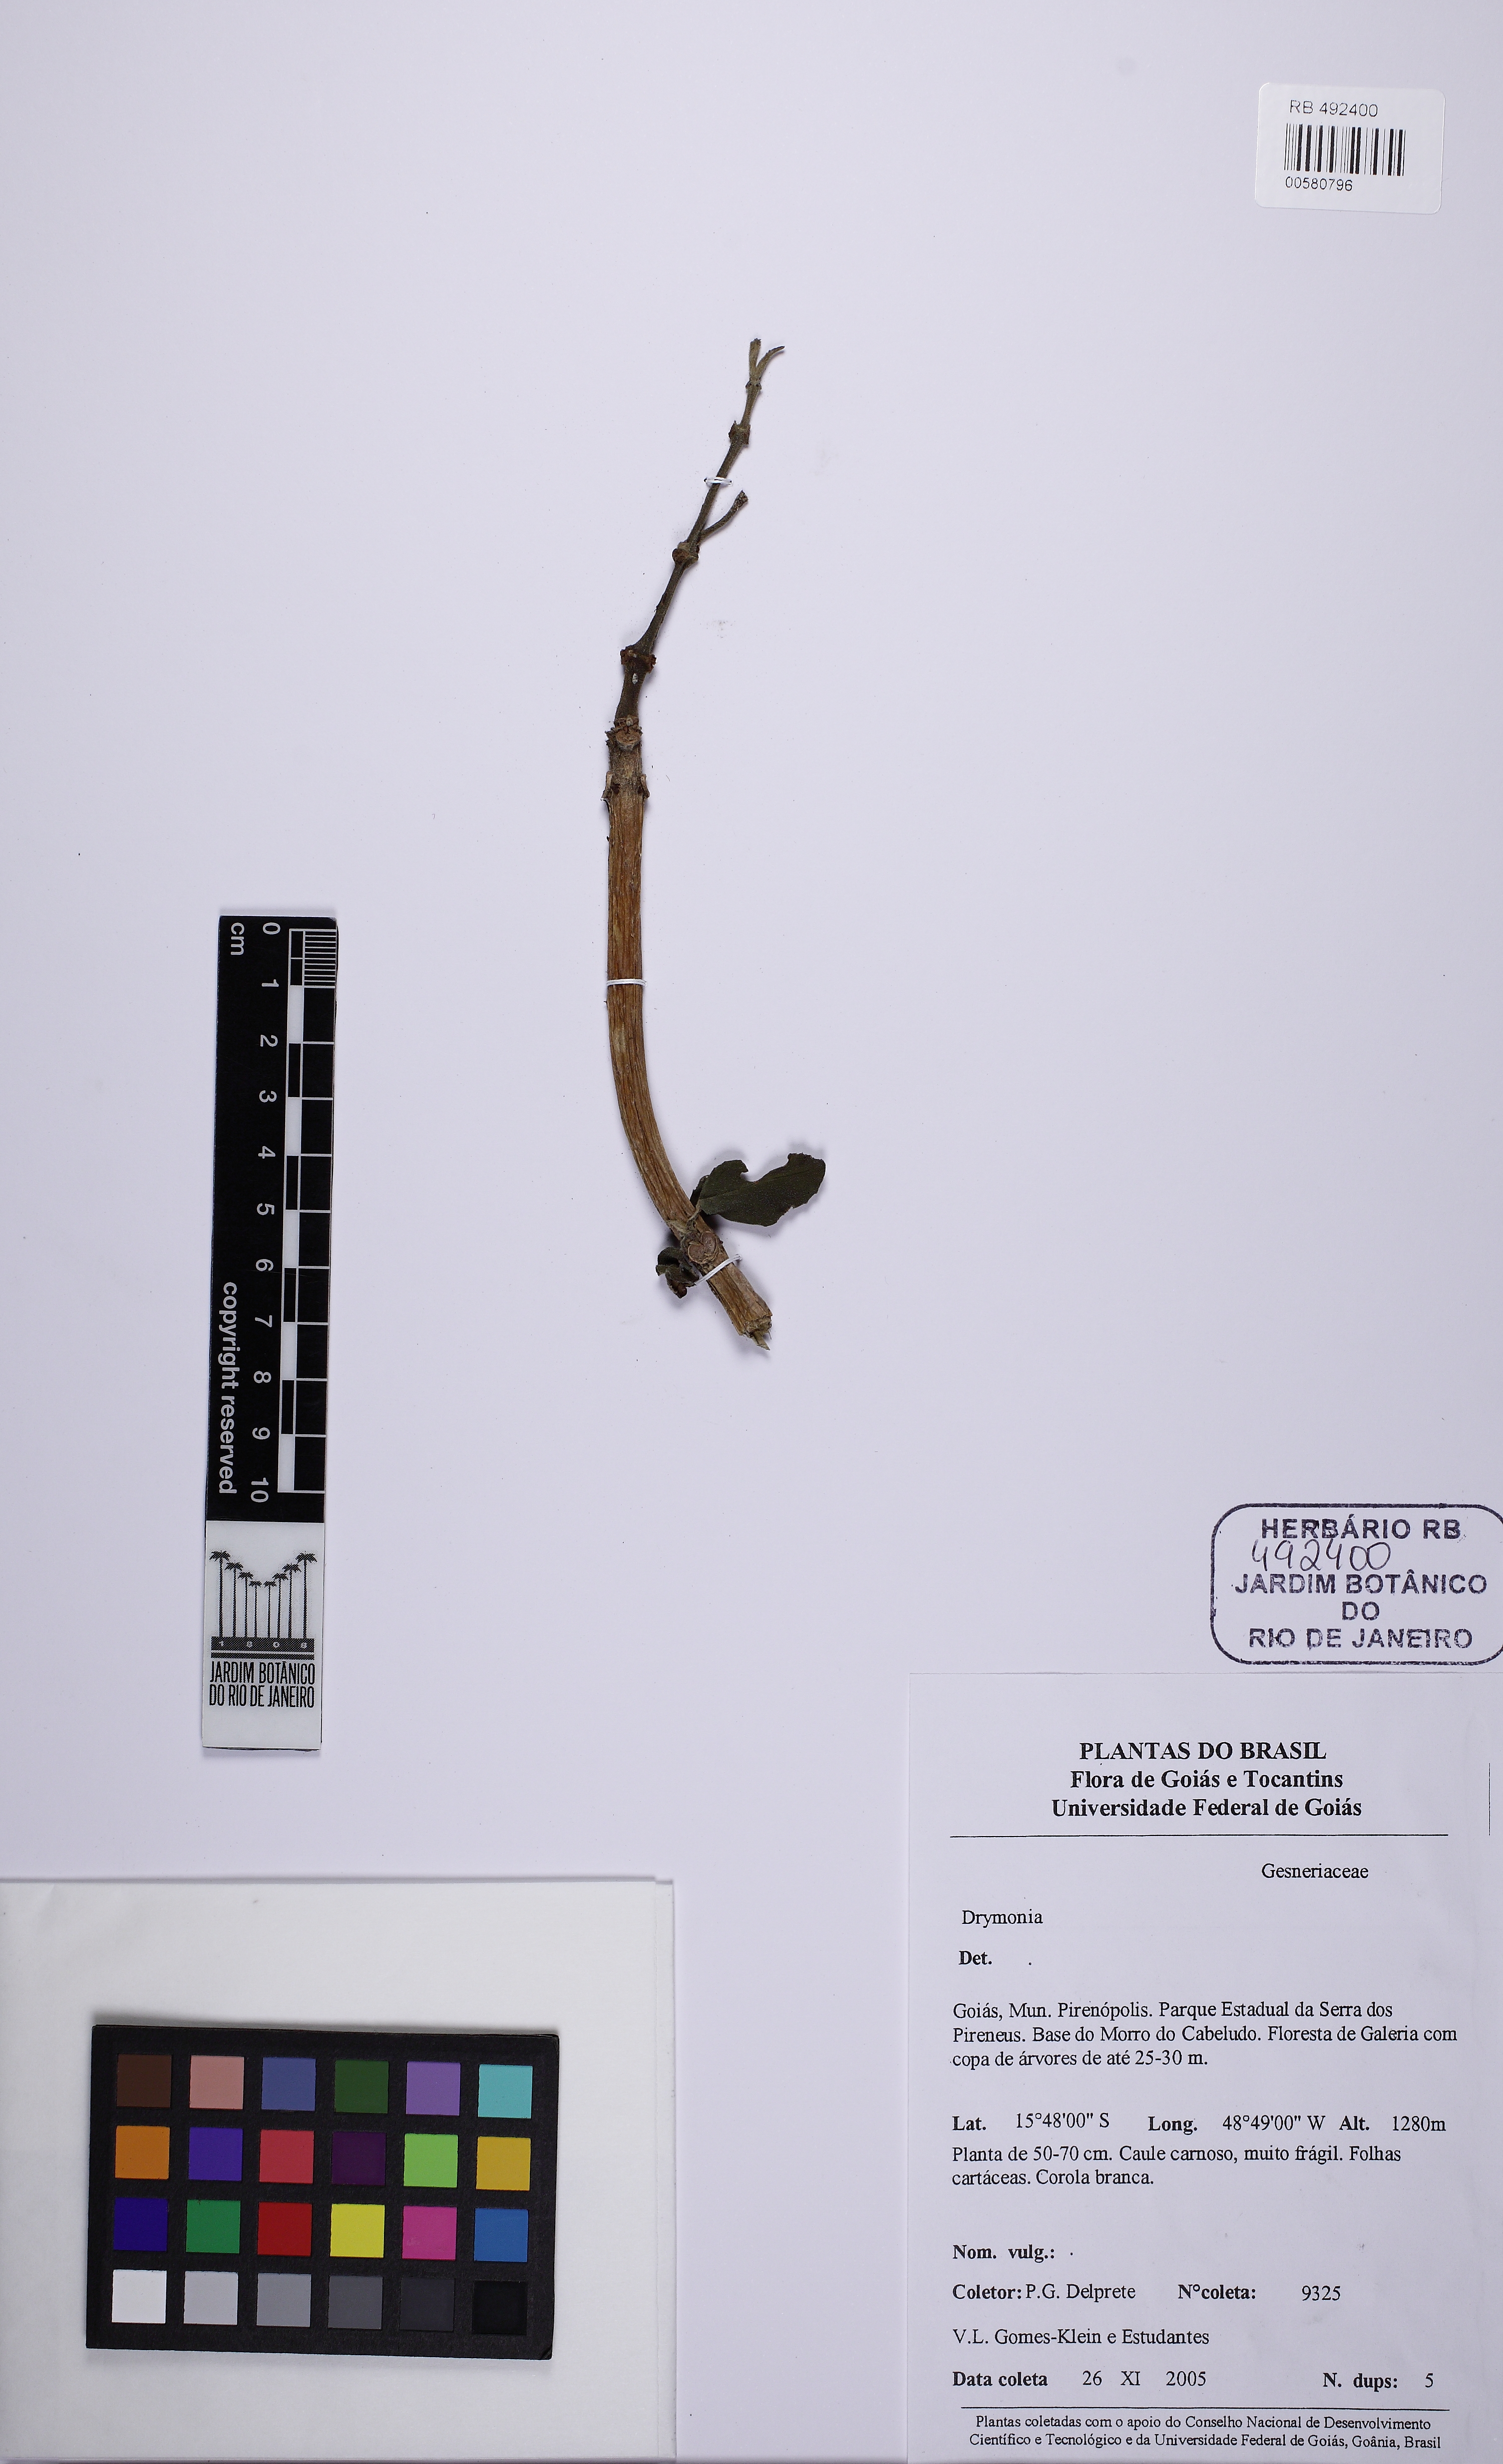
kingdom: Plantae
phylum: Tracheophyta
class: Magnoliopsida
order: Lamiales
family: Gesneriaceae
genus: Drymonia
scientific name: Drymonia
